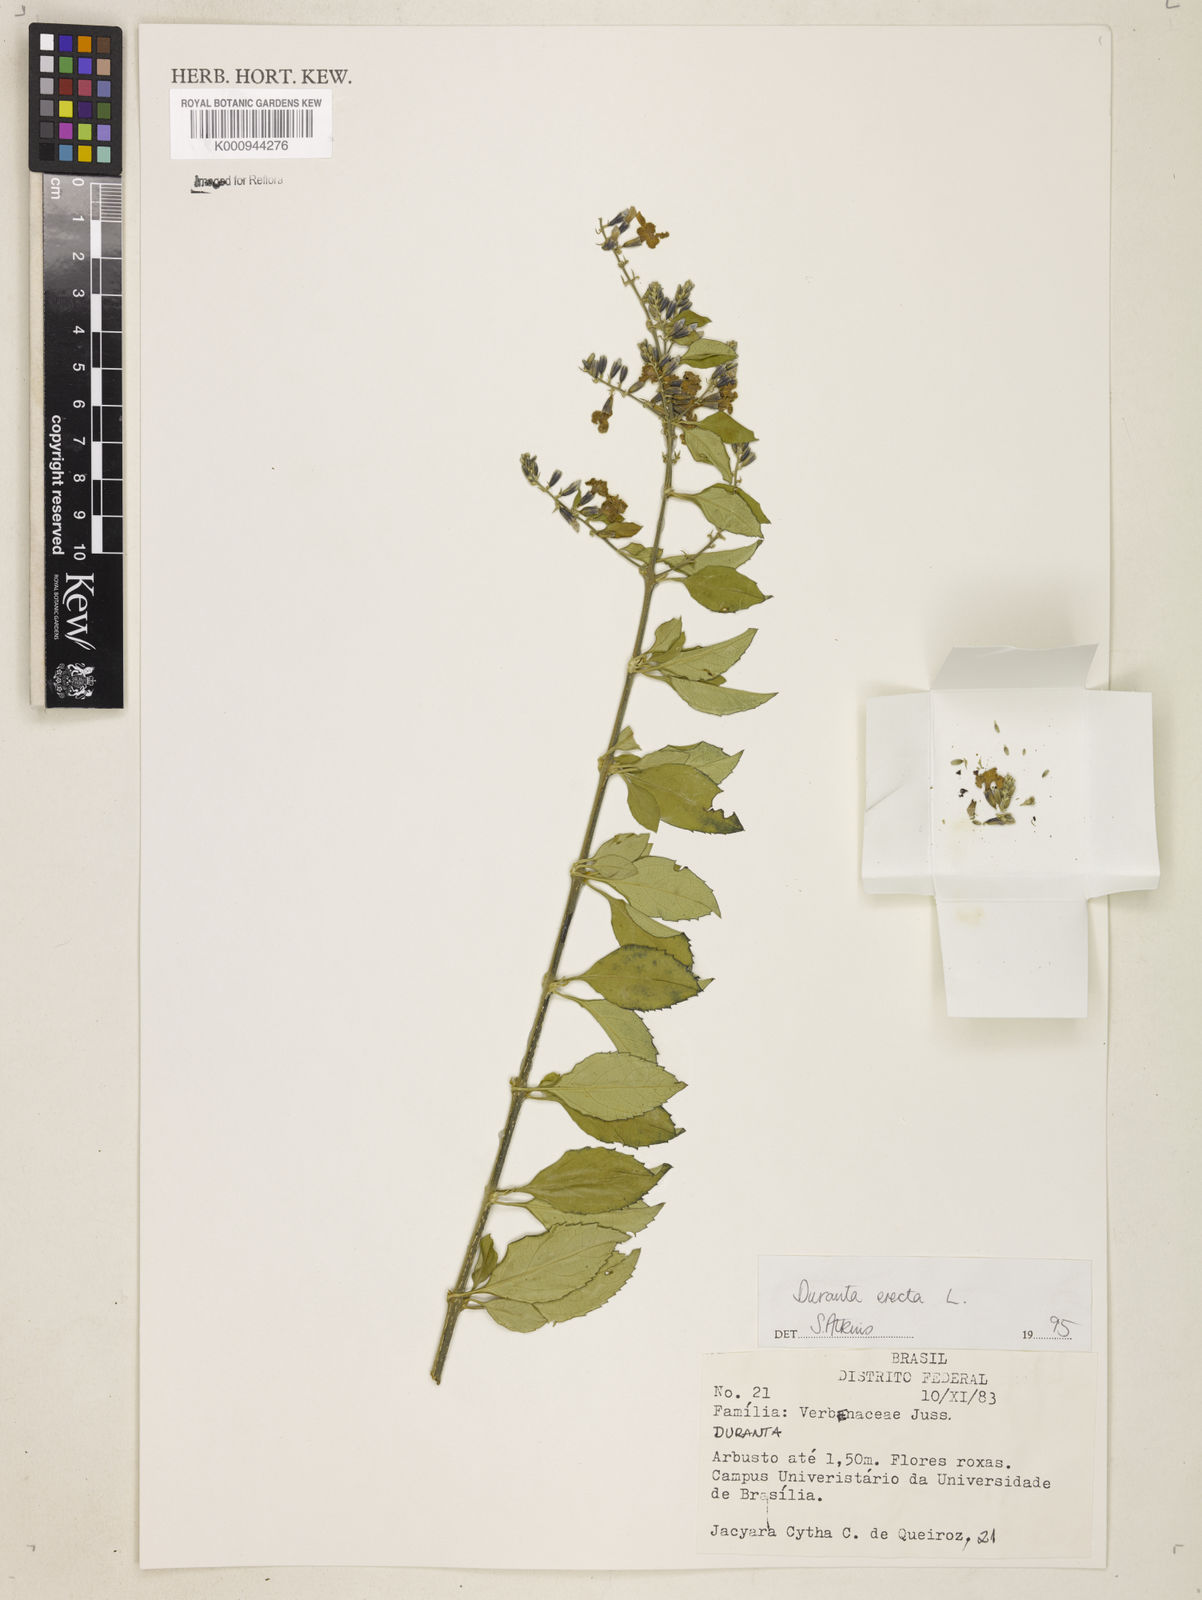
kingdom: Plantae
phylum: Tracheophyta
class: Magnoliopsida
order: Lamiales
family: Verbenaceae
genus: Citharexylum
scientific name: Citharexylum caudatum
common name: Fiddlewood
